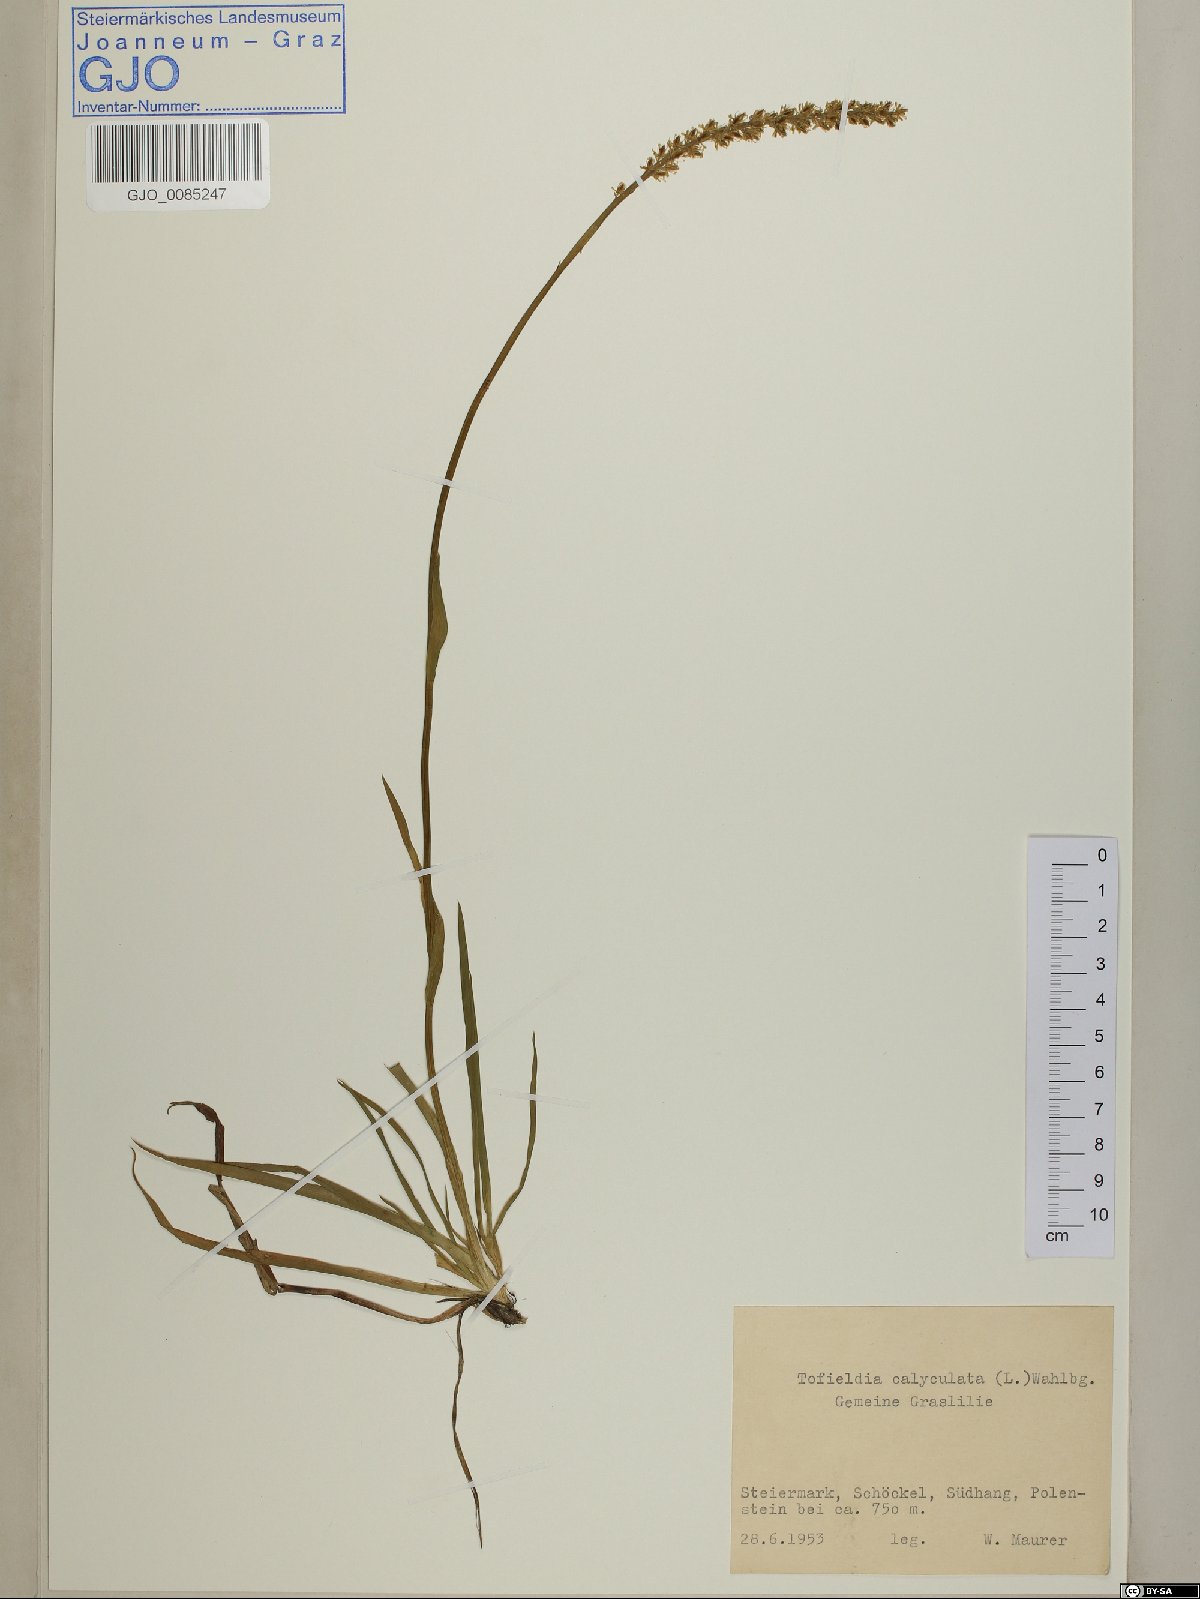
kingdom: Plantae
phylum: Tracheophyta
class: Liliopsida
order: Alismatales
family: Tofieldiaceae
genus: Tofieldia
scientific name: Tofieldia calyculata
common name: German-asphodel
